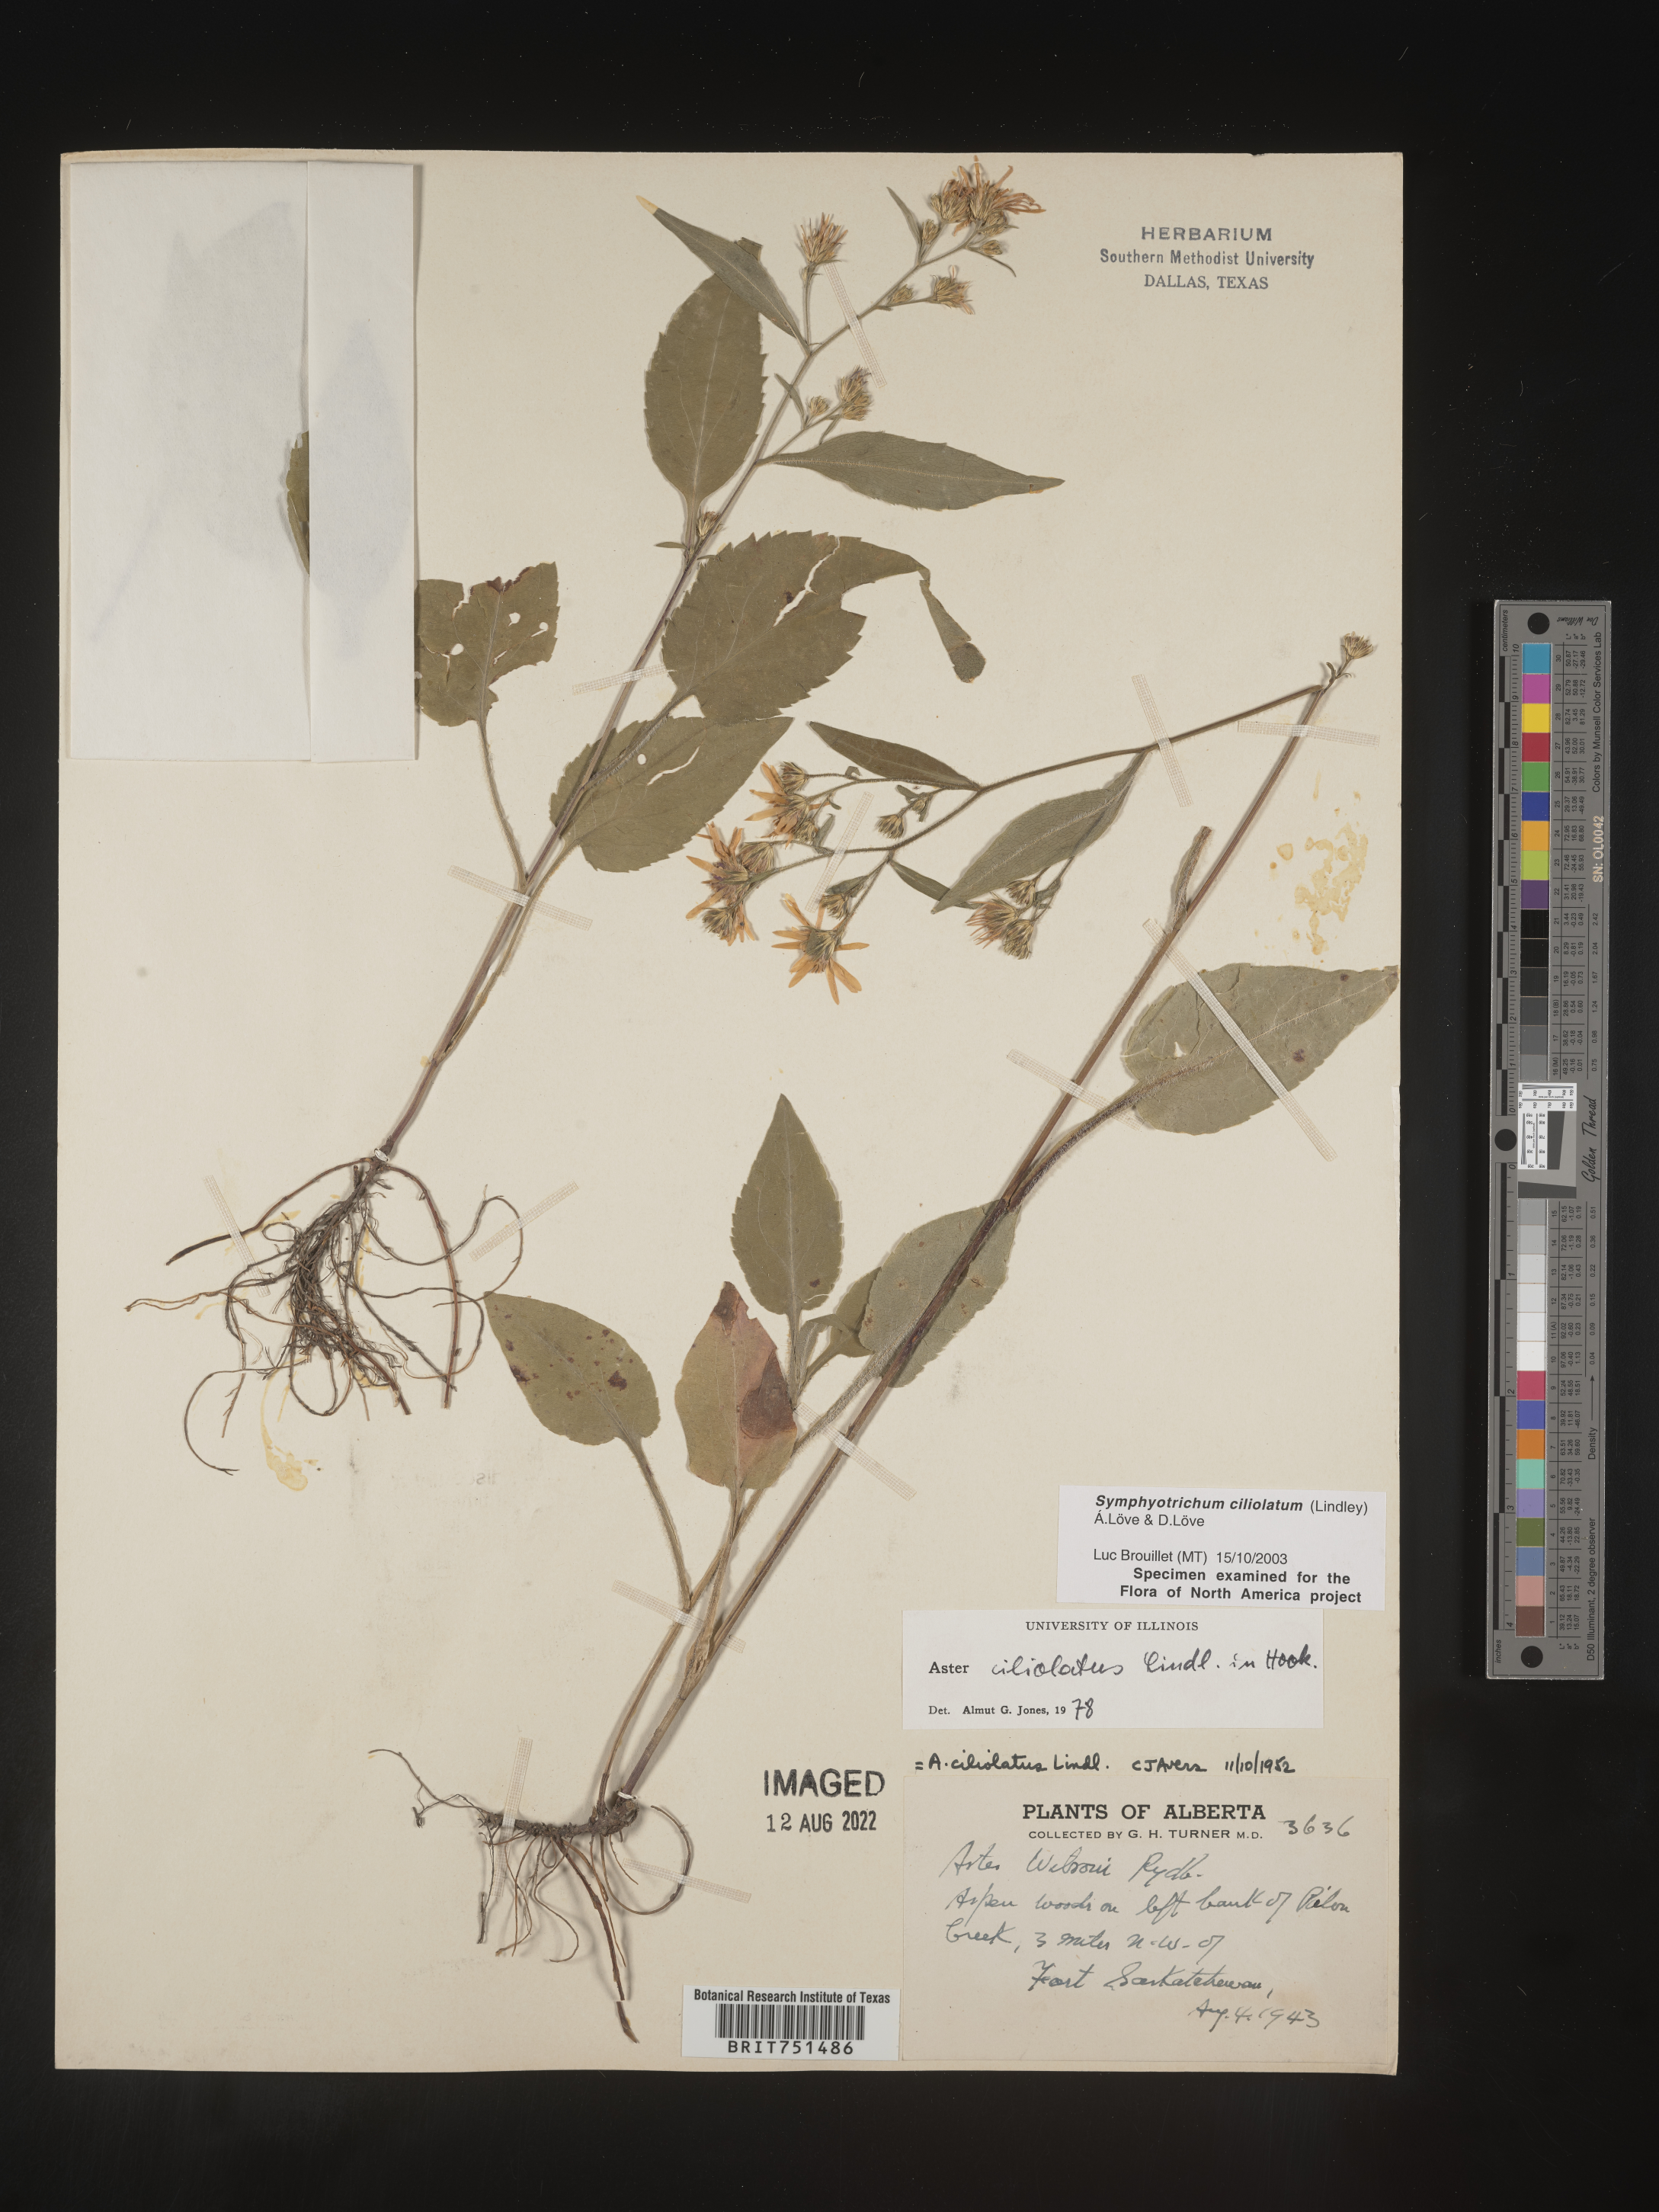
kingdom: Plantae
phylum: Tracheophyta
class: Magnoliopsida
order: Asterales
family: Asteraceae
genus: Symphyotrichum
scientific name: Symphyotrichum ciliolatum
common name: Fringed blue aster
